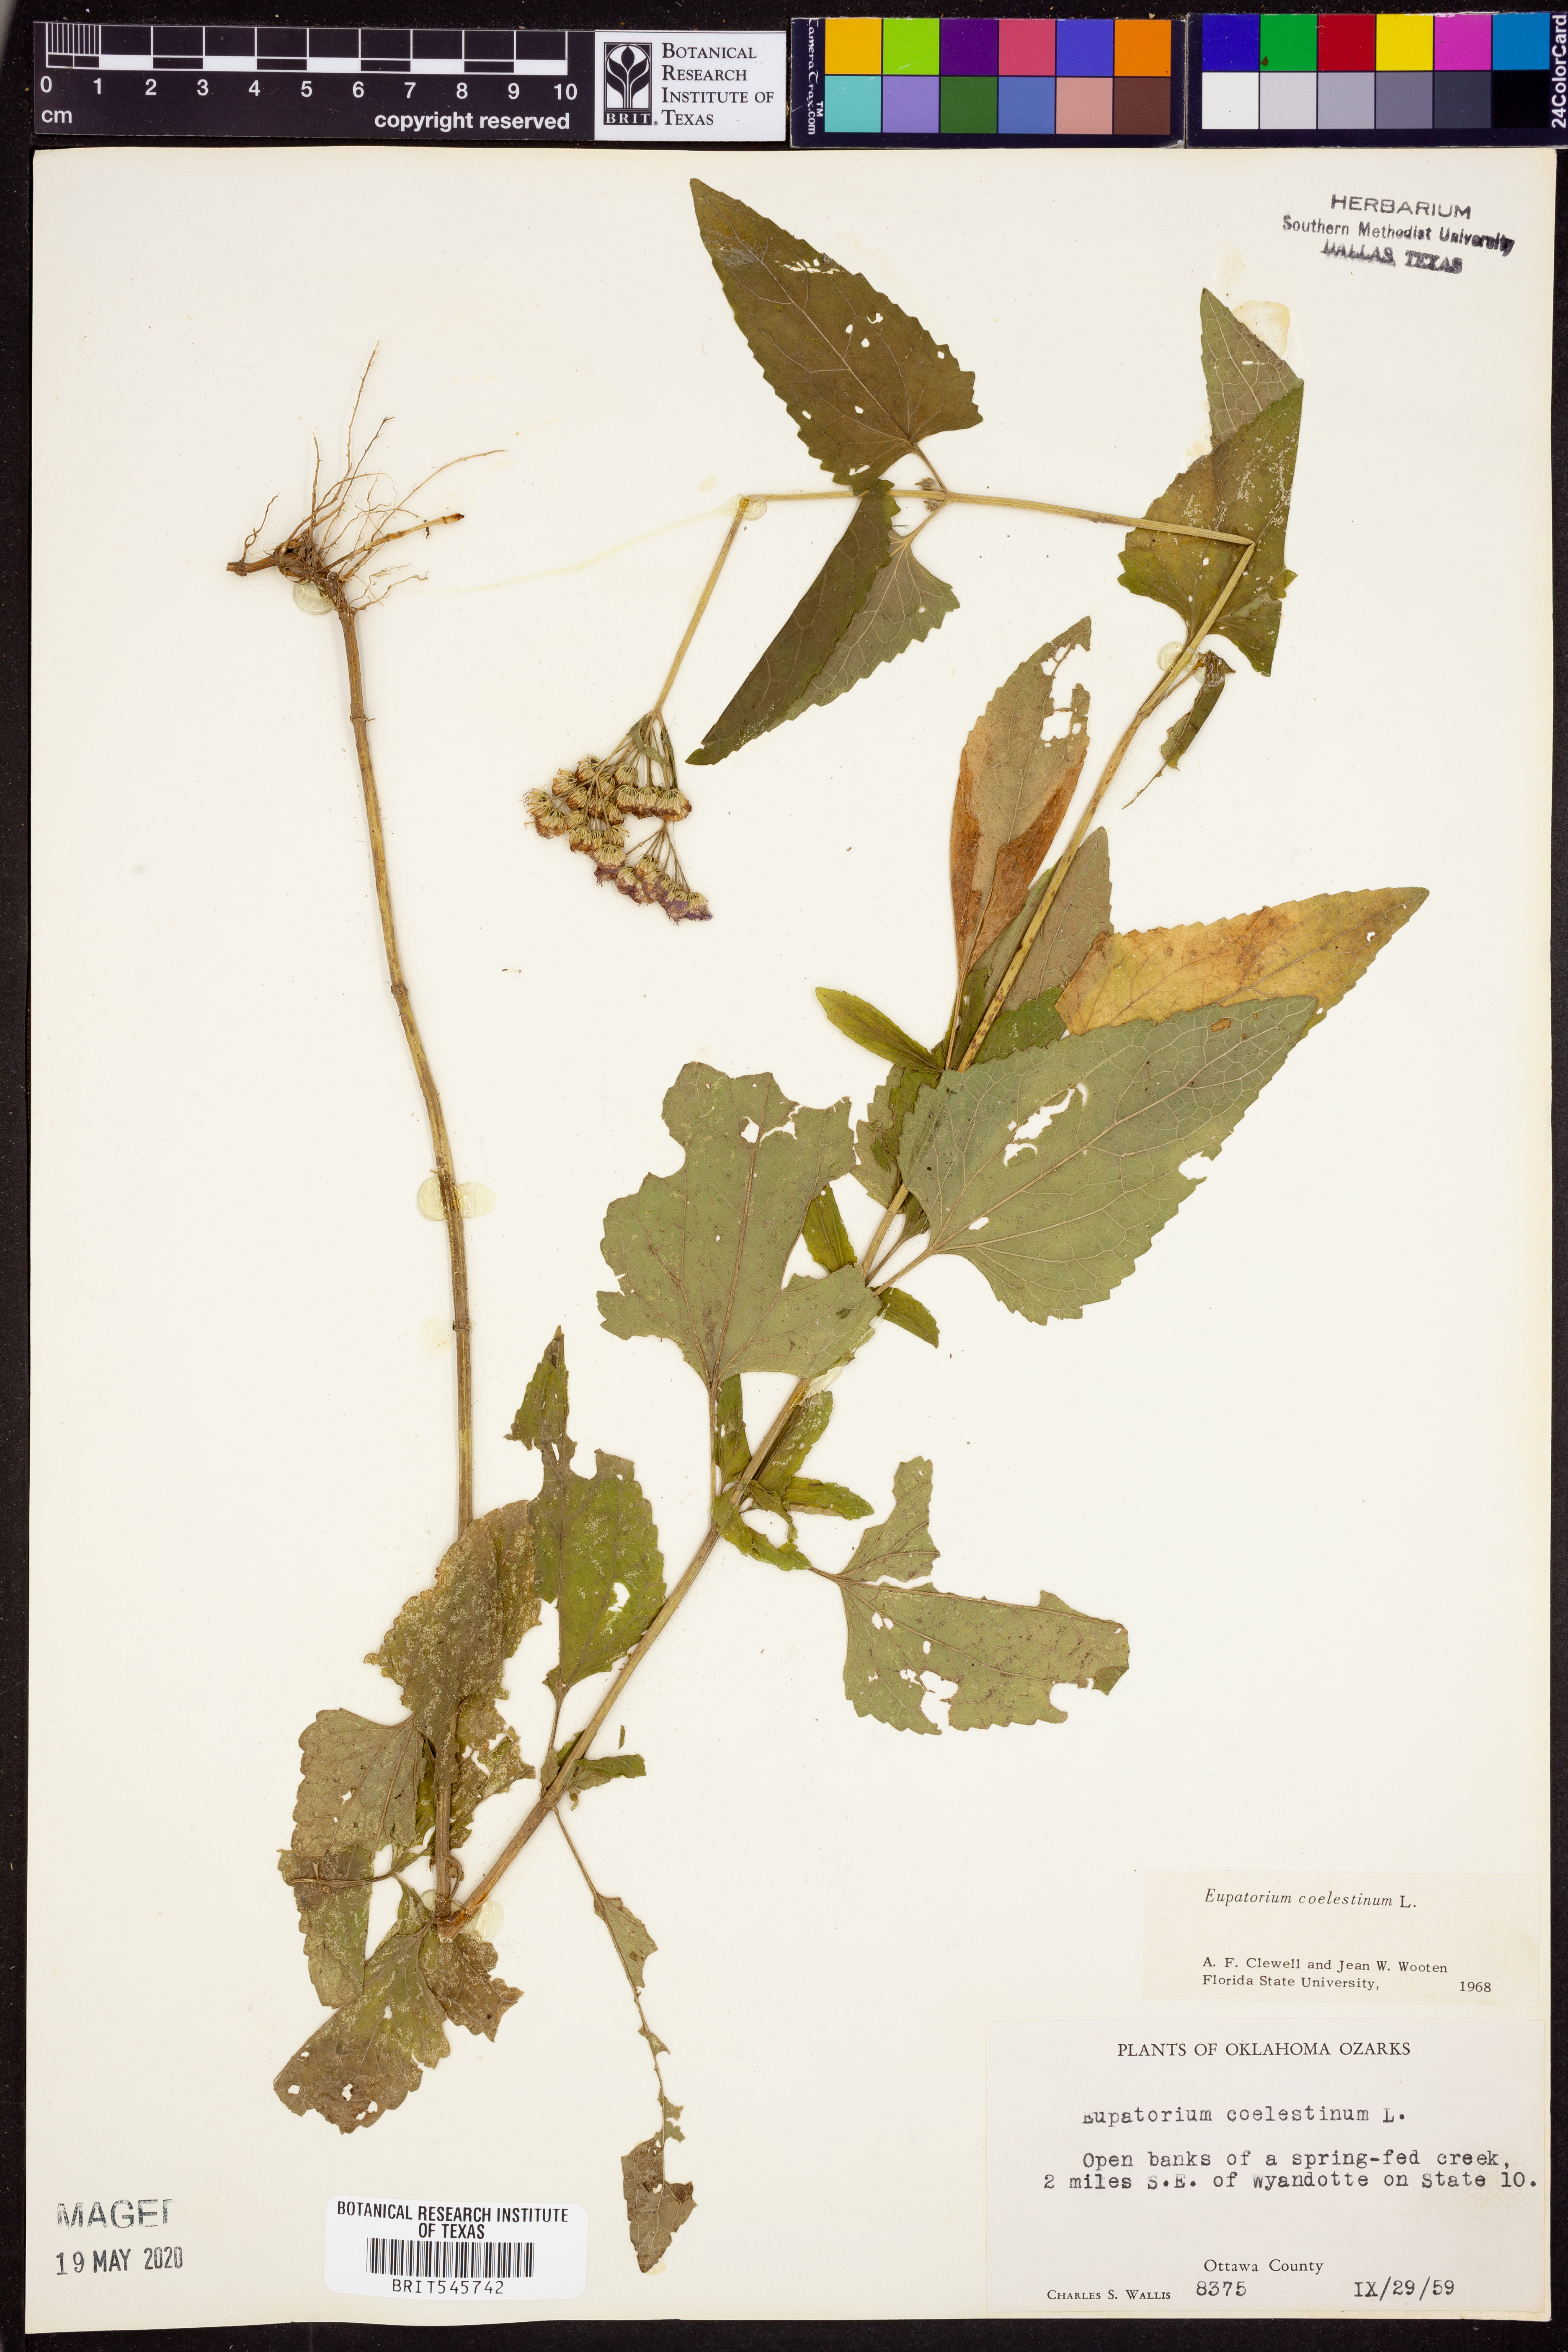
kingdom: Plantae
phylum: Tracheophyta
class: Magnoliopsida
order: Asterales
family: Asteraceae
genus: Conoclinium
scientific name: Conoclinium coelestinum
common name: Blue mistflower
